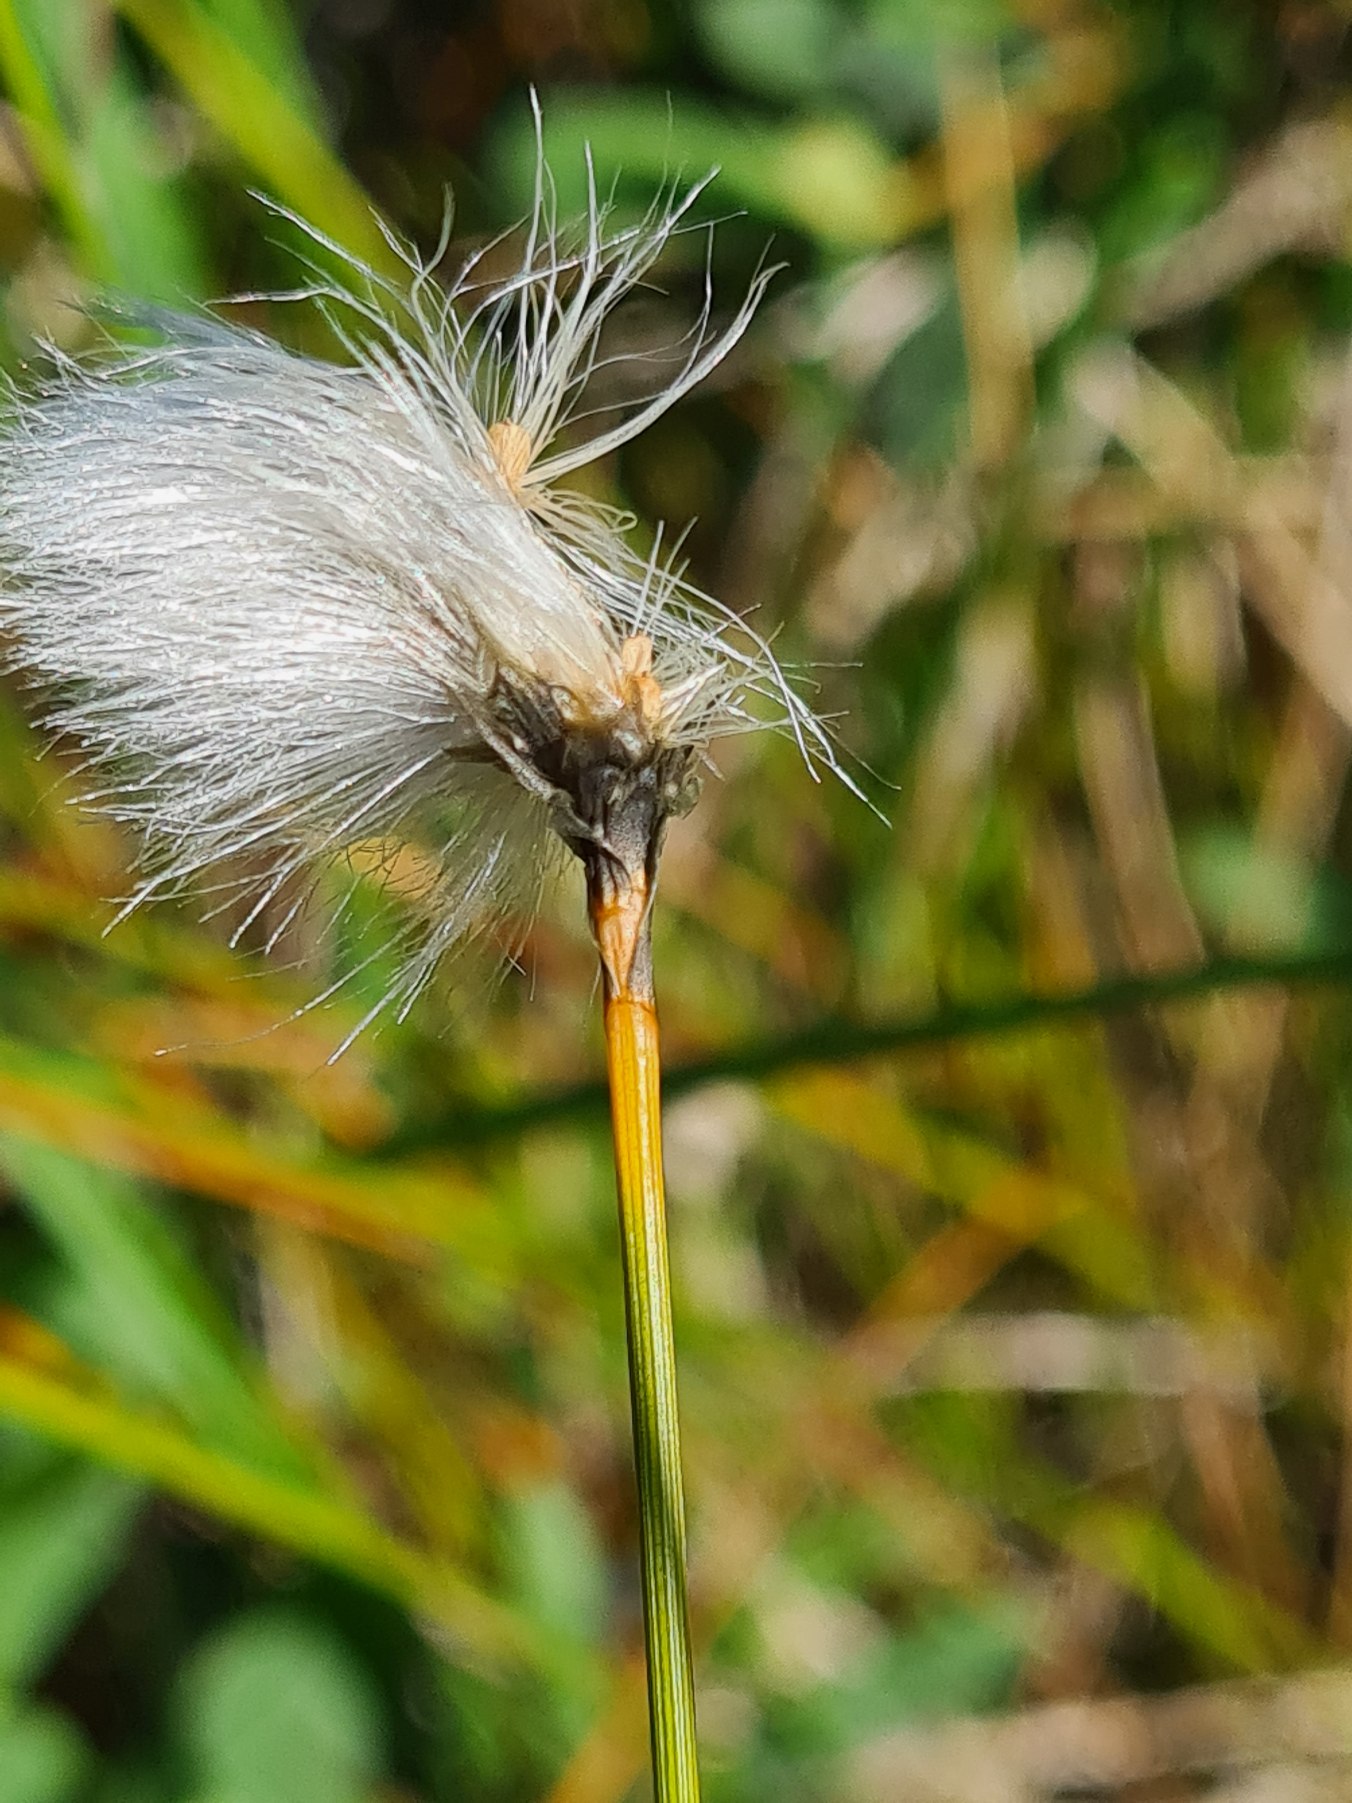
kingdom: Plantae
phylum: Tracheophyta
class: Liliopsida
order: Poales
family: Cyperaceae
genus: Eriophorum
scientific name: Eriophorum vaginatum
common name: Tue-kæruld
